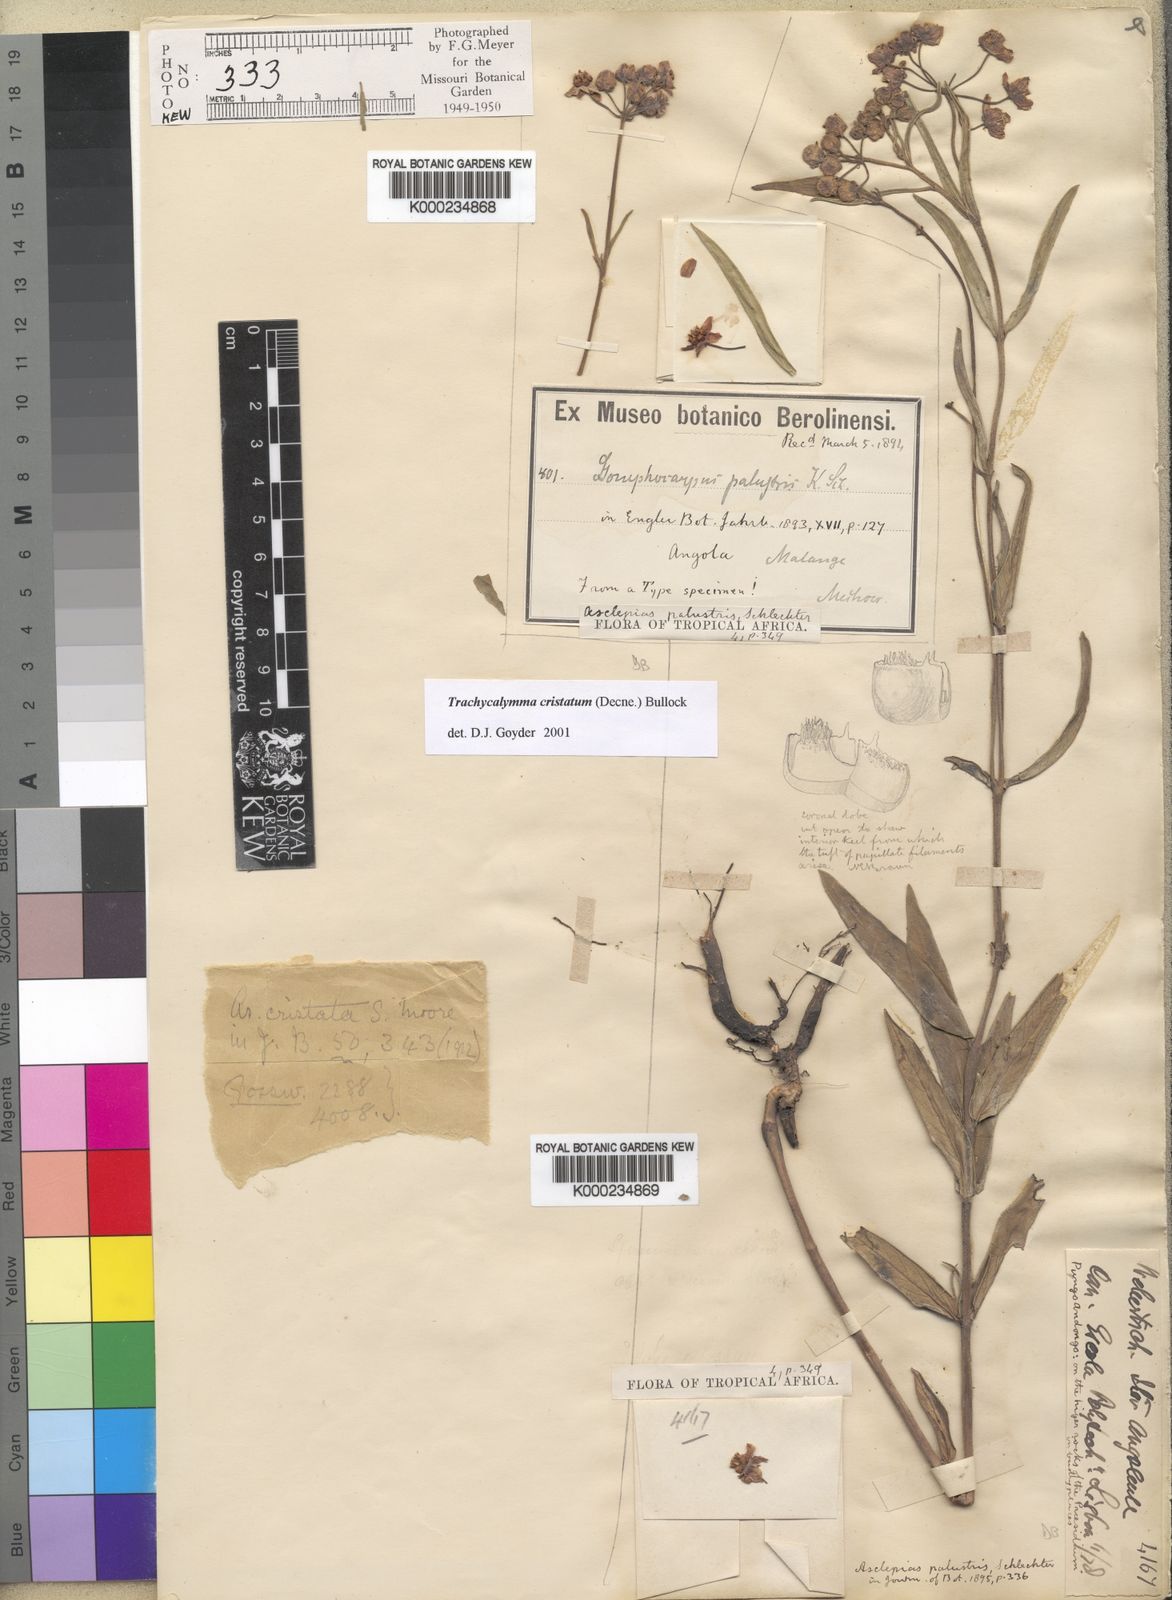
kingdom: Plantae
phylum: Tracheophyta
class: Magnoliopsida
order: Gentianales
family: Apocynaceae
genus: Asclepias
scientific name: Asclepias palustris
